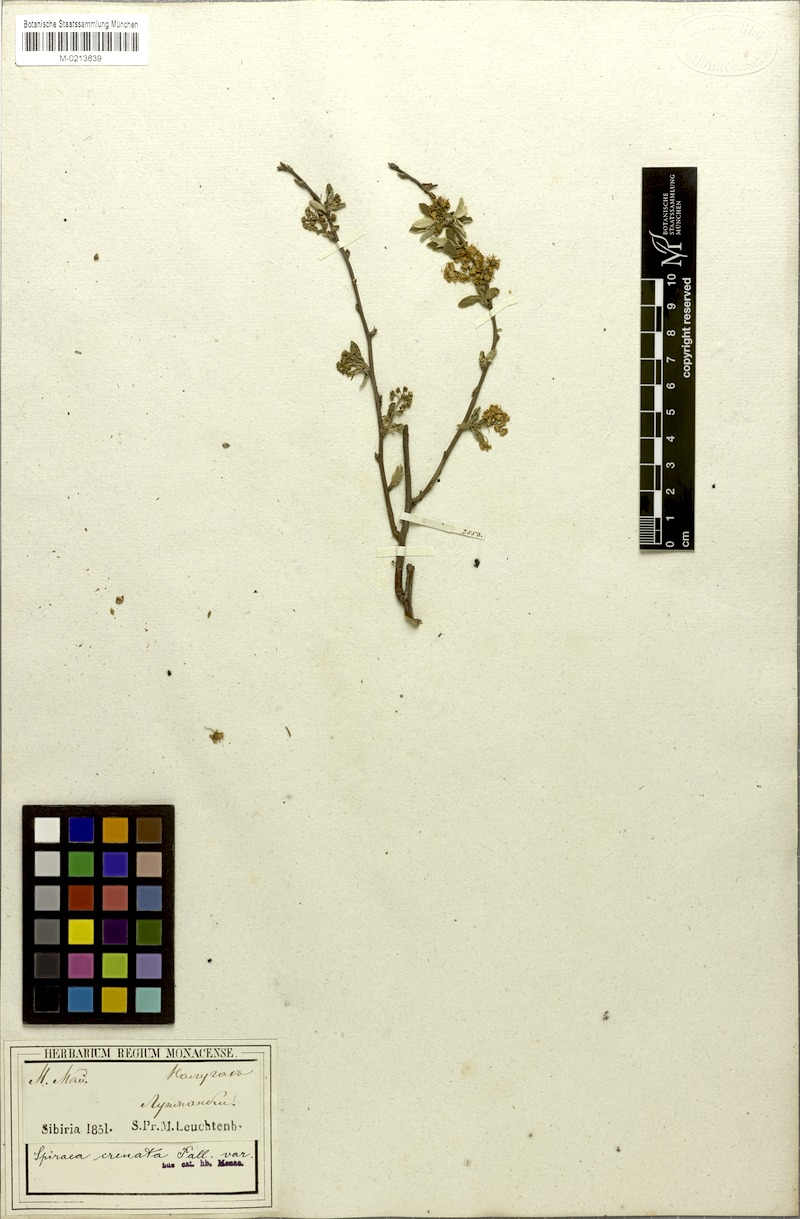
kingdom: Plantae
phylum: Tracheophyta
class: Magnoliopsida
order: Rosales
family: Rosaceae
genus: Spiraea
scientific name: Spiraea crenata
